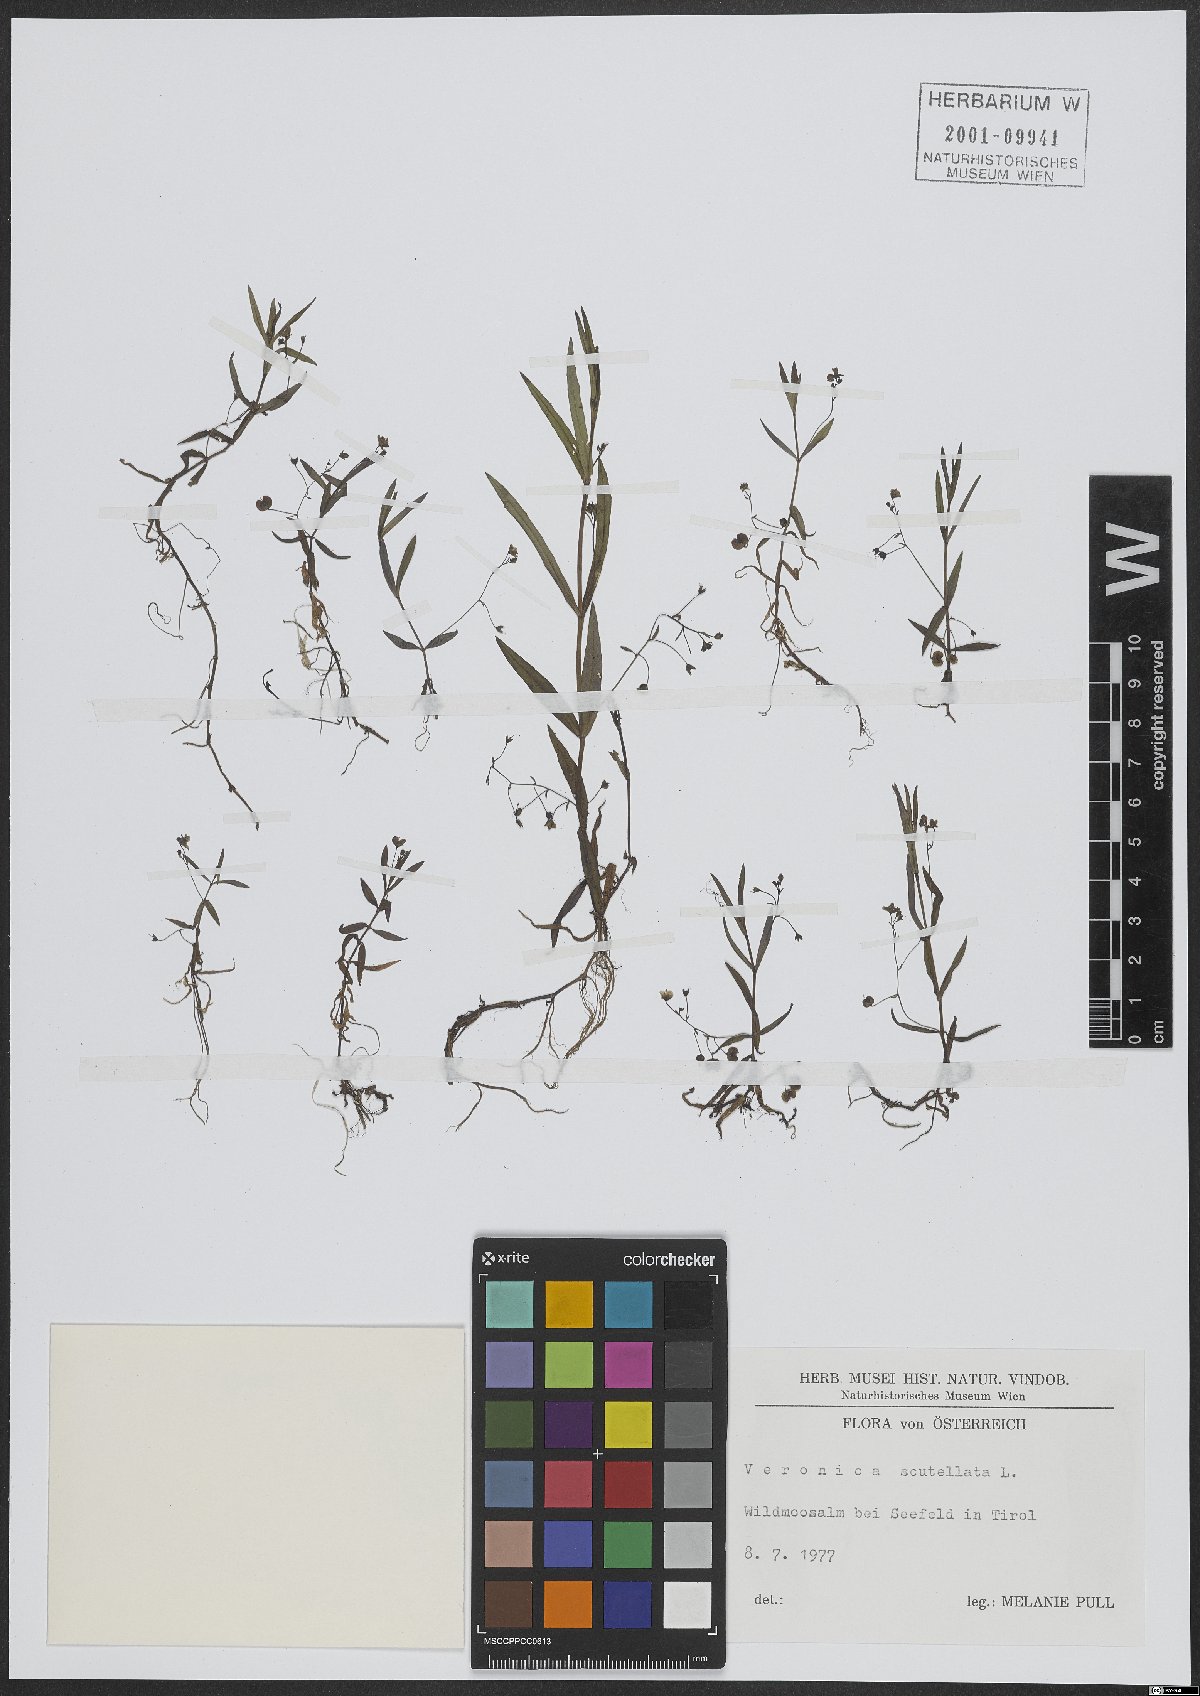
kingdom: Plantae
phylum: Tracheophyta
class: Magnoliopsida
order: Lamiales
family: Plantaginaceae
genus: Veronica
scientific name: Veronica scutellata
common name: Marsh speedwell
